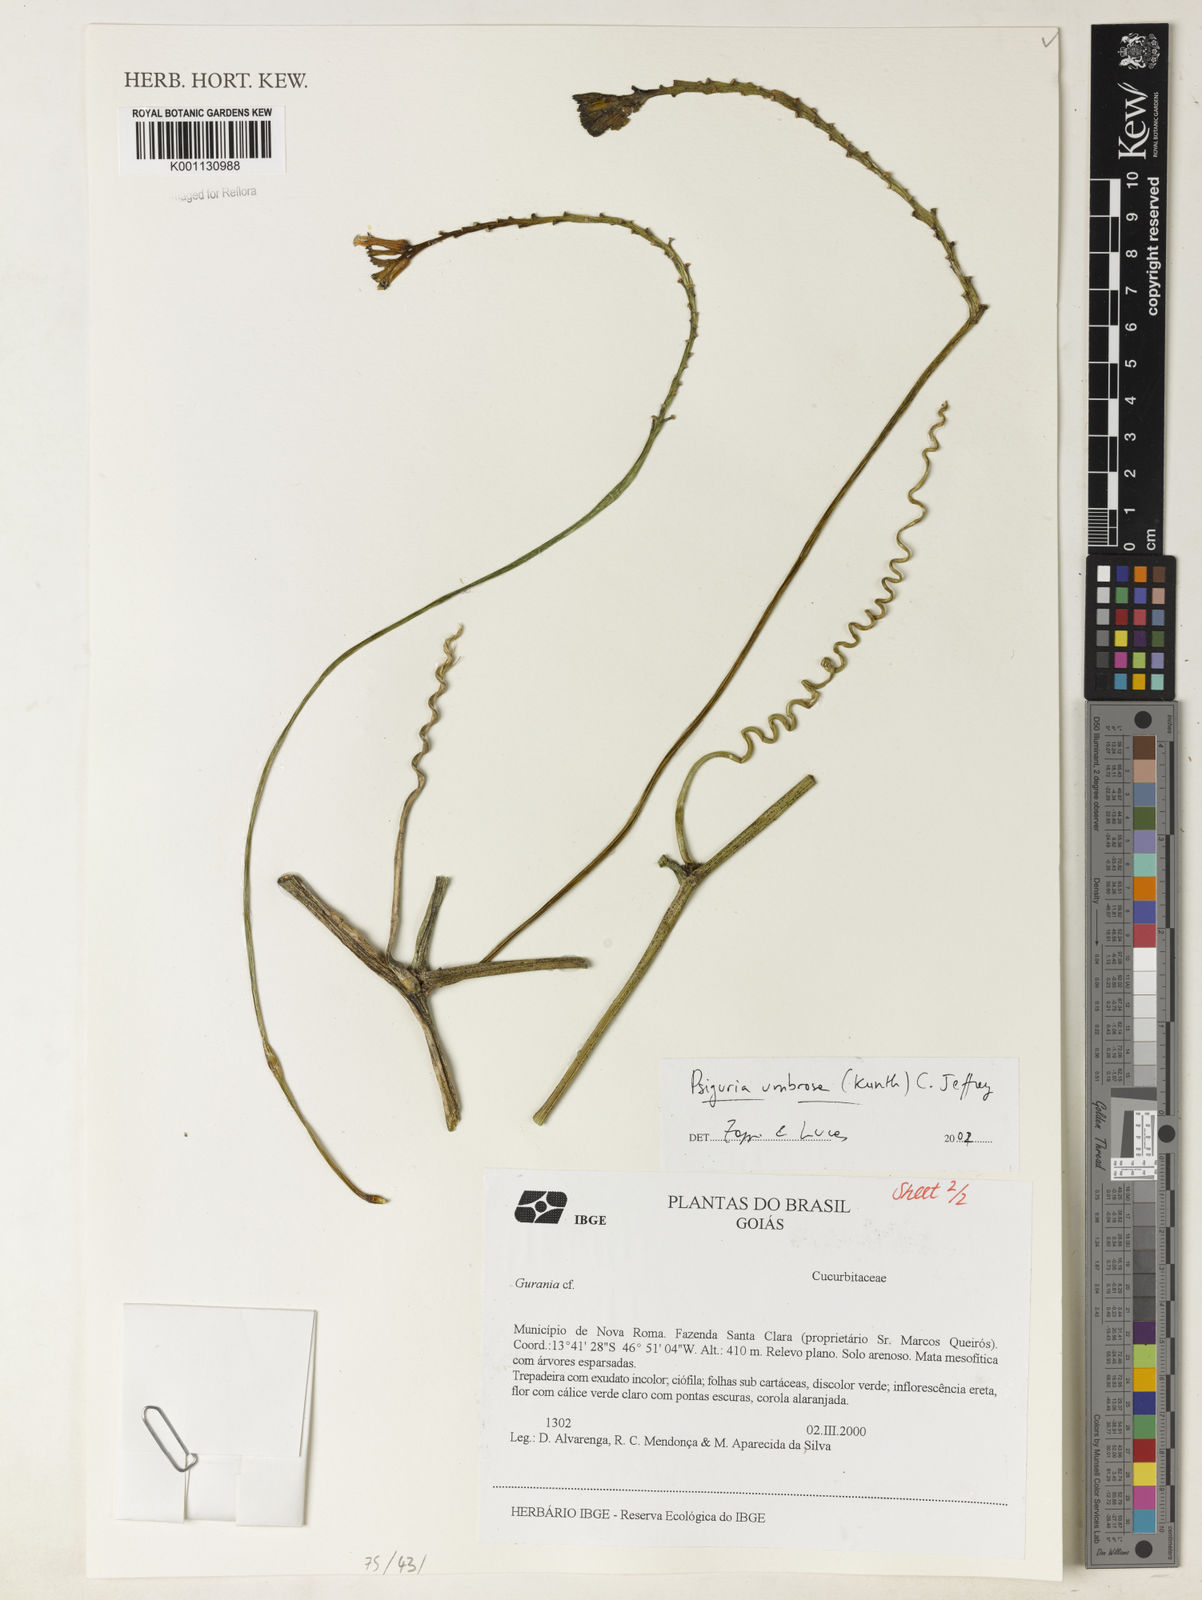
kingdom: Plantae
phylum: Tracheophyta
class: Magnoliopsida
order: Cucurbitales
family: Cucurbitaceae
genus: Psiguria
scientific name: Psiguria umbrosa
